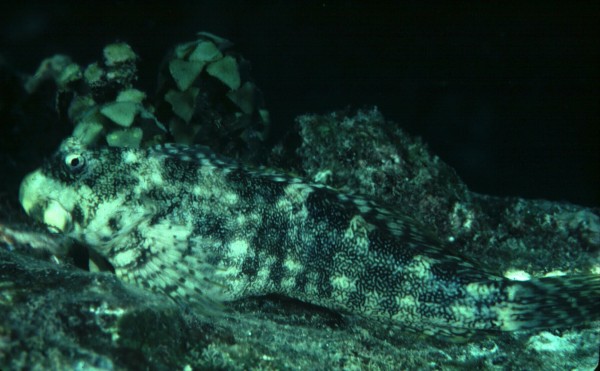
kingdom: Animalia
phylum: Chordata
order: Perciformes
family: Blenniidae
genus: Entomacrodus
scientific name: Entomacrodus vermiculatus
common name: Vermiculated blenny
